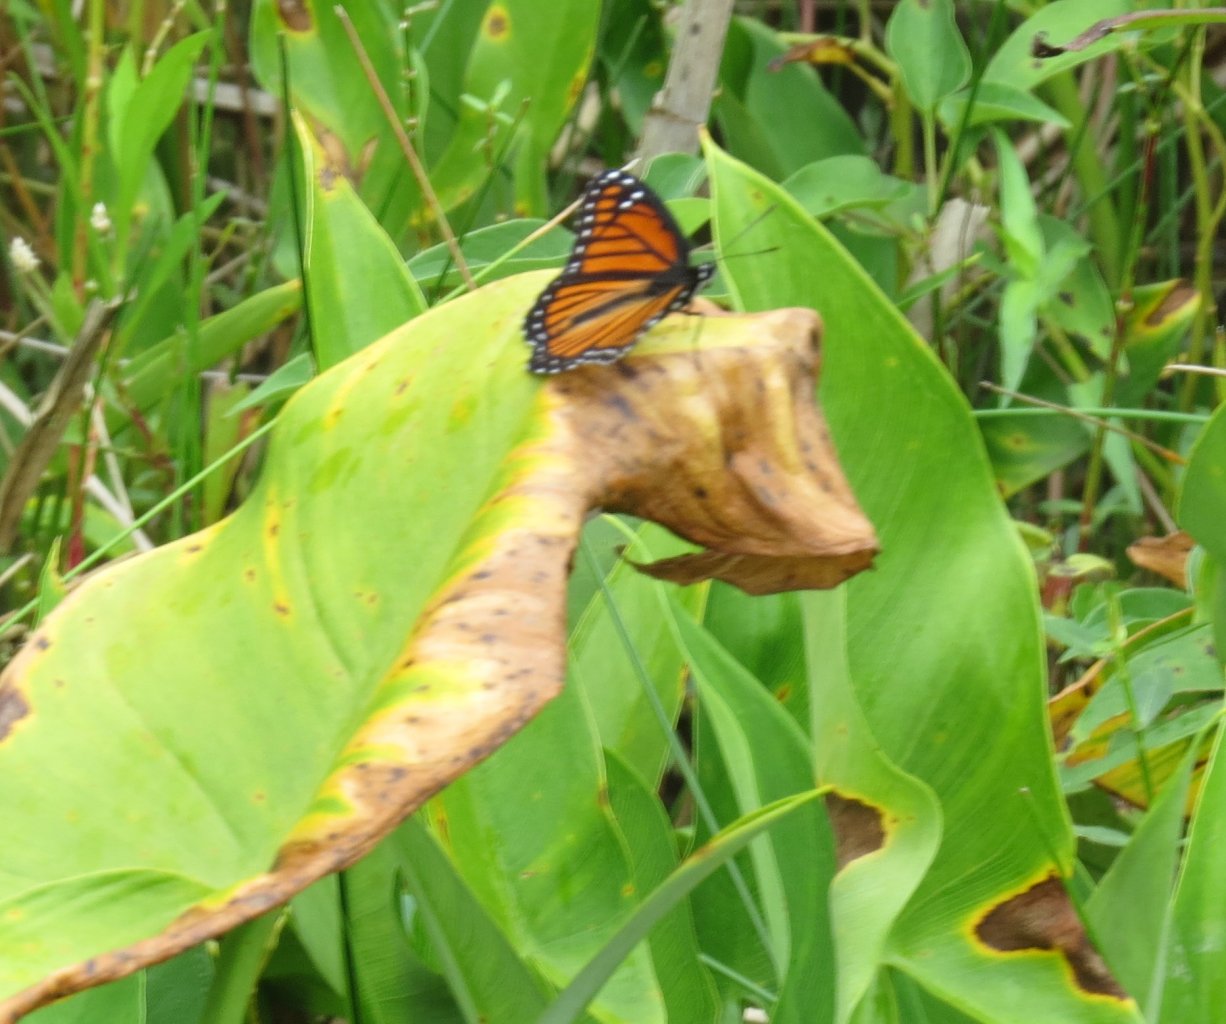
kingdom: Animalia
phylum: Arthropoda
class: Insecta
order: Lepidoptera
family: Nymphalidae
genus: Limenitis
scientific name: Limenitis archippus
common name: Viceroy
